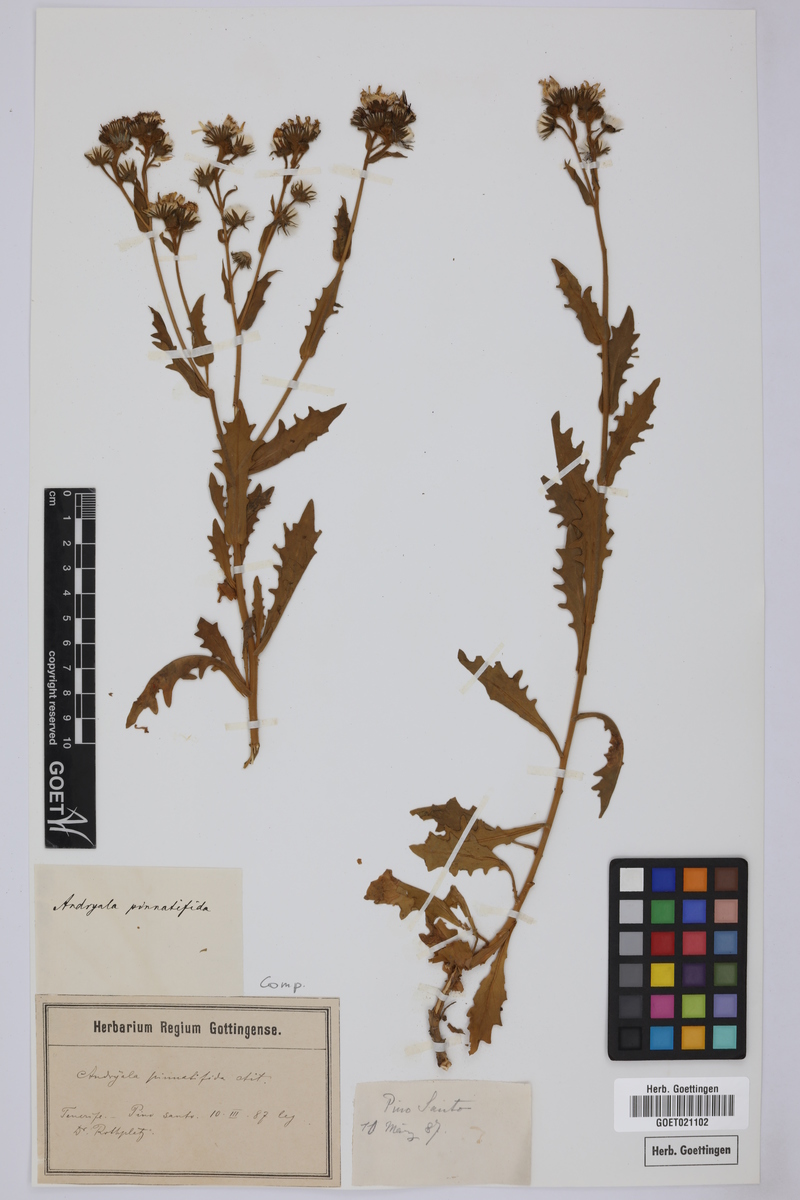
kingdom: Plantae
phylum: Tracheophyta
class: Magnoliopsida
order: Asterales
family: Asteraceae
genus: Andryala
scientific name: Andryala pinnatifida
